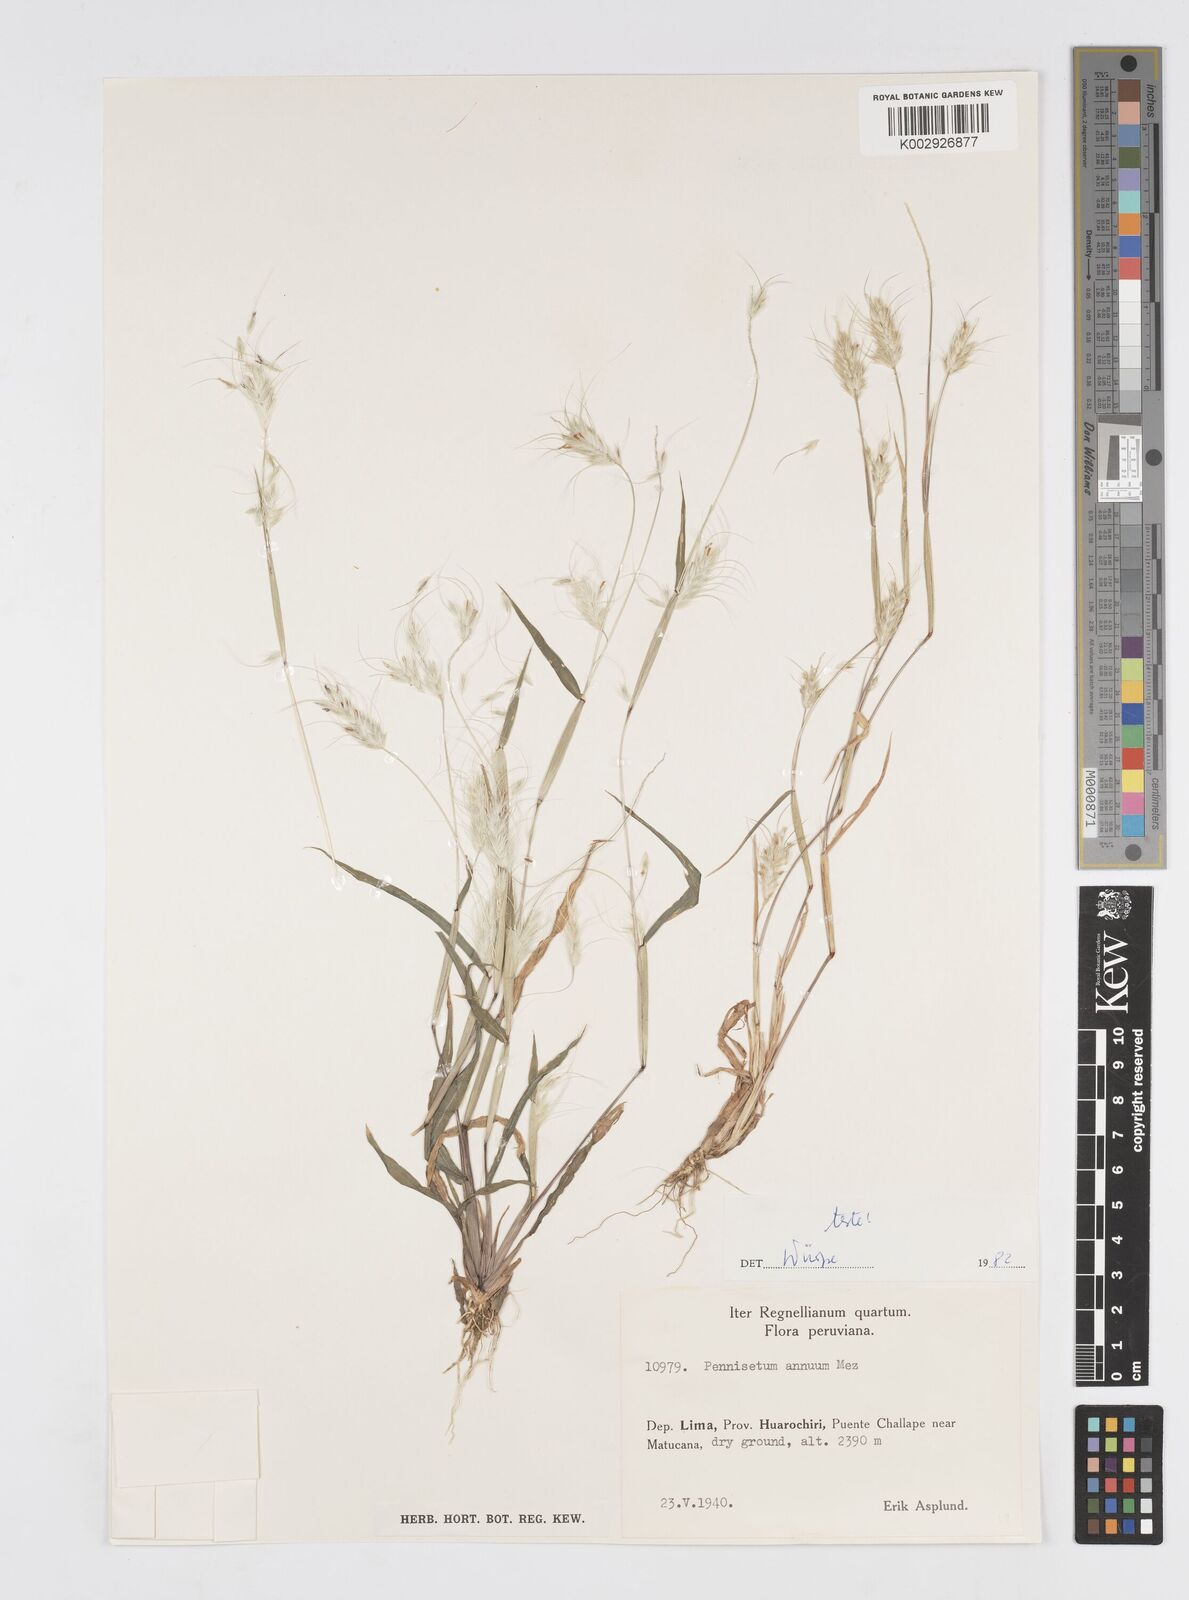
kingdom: Plantae
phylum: Tracheophyta
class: Liliopsida
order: Poales
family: Poaceae
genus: Cenchrus
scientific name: Cenchrus annuus
